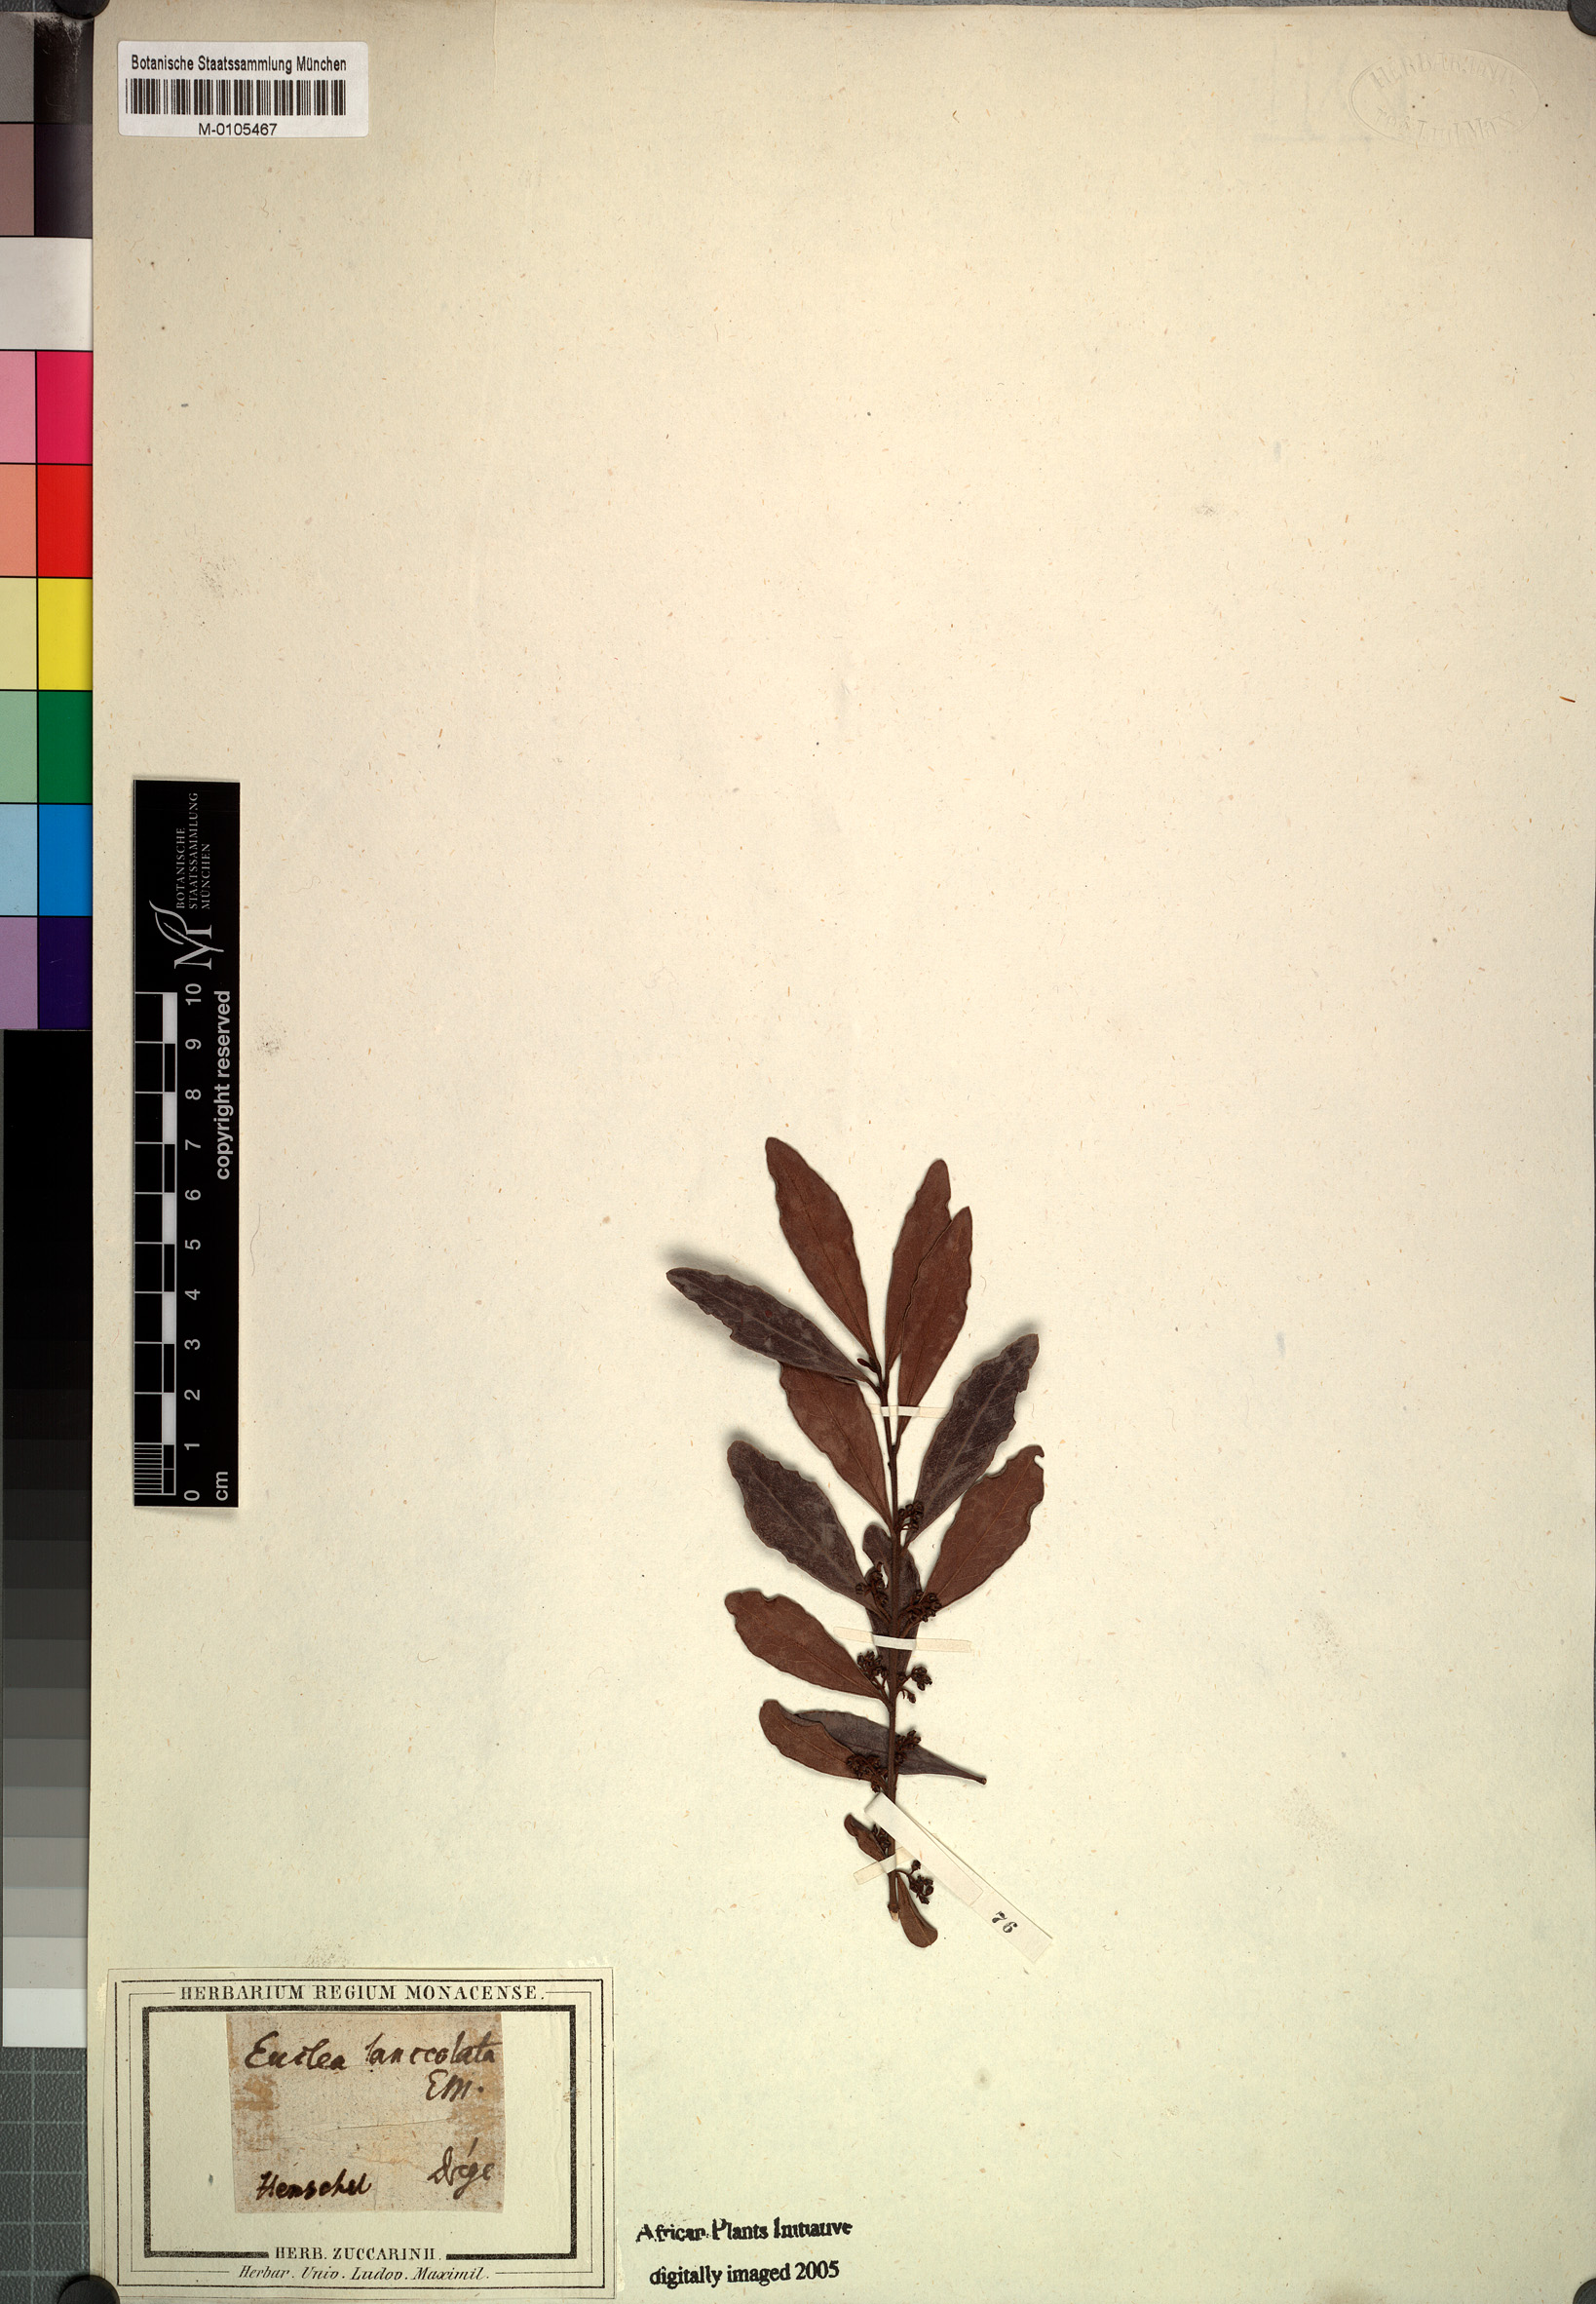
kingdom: Plantae
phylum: Tracheophyta
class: Magnoliopsida
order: Ericales
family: Ebenaceae
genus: Euclea
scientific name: Euclea crispa
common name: Blue guarri
